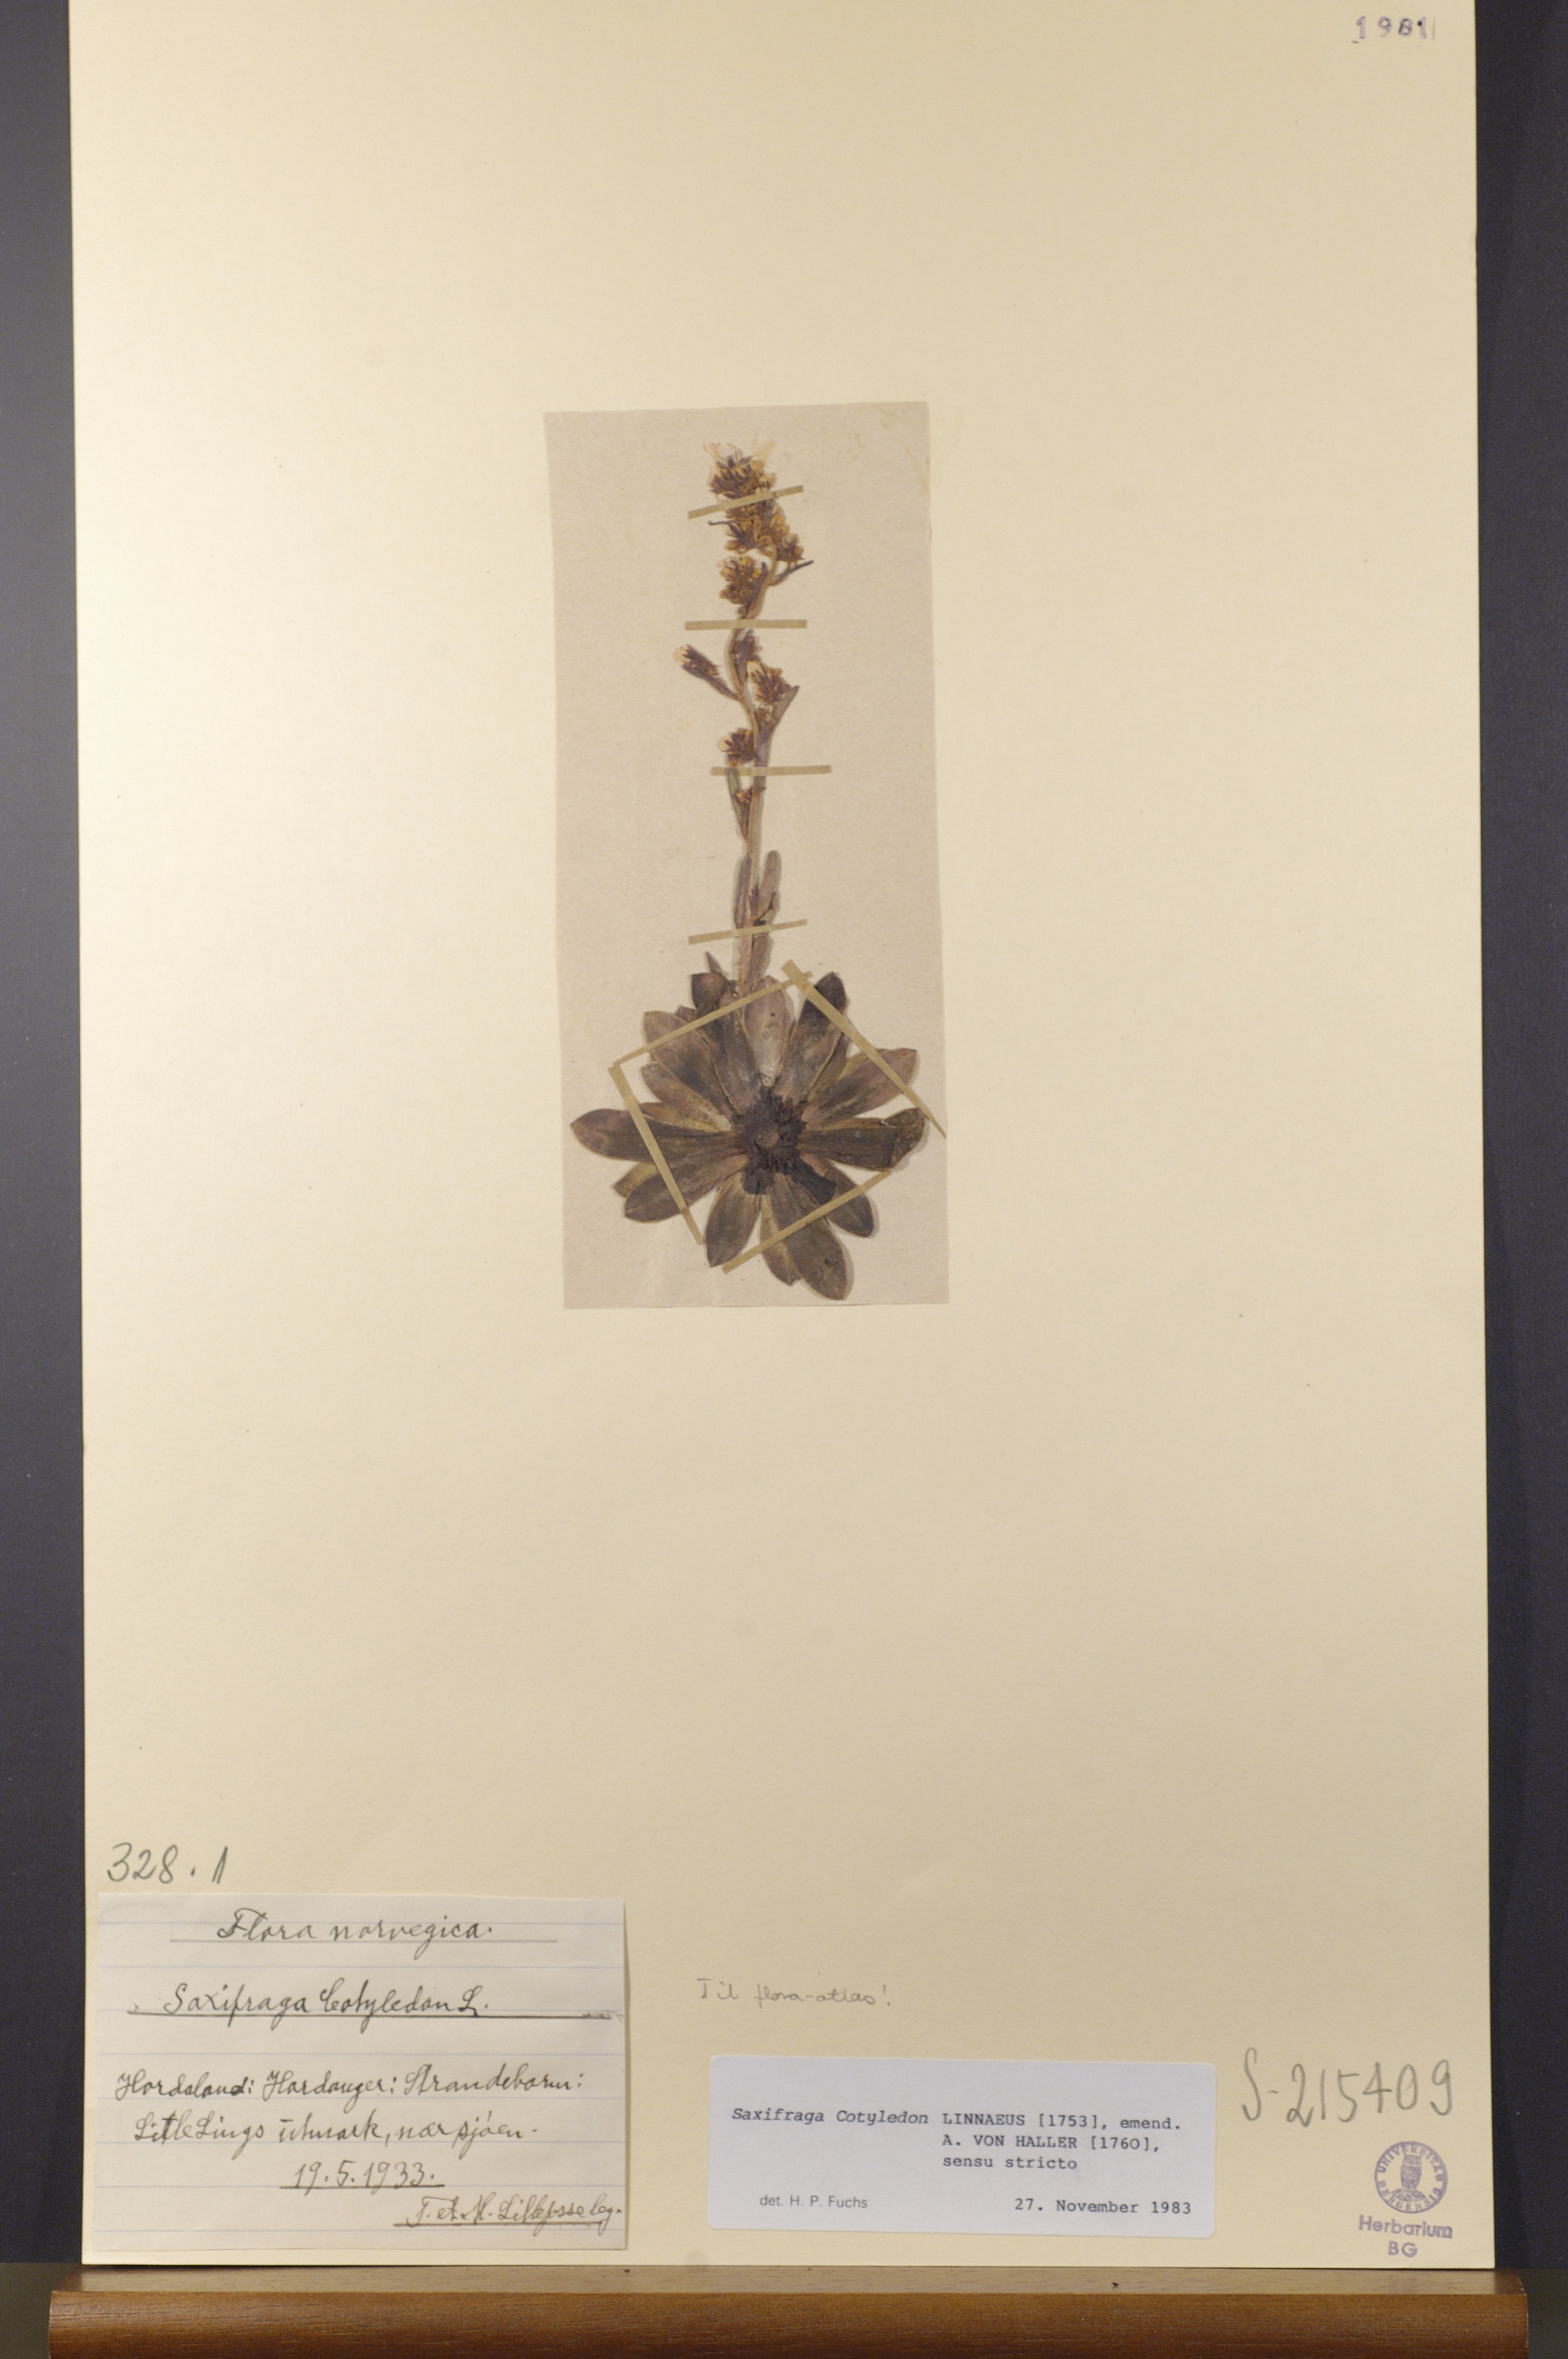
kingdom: Plantae
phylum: Tracheophyta
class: Magnoliopsida
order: Saxifragales
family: Saxifragaceae
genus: Saxifraga
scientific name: Saxifraga cotyledon
